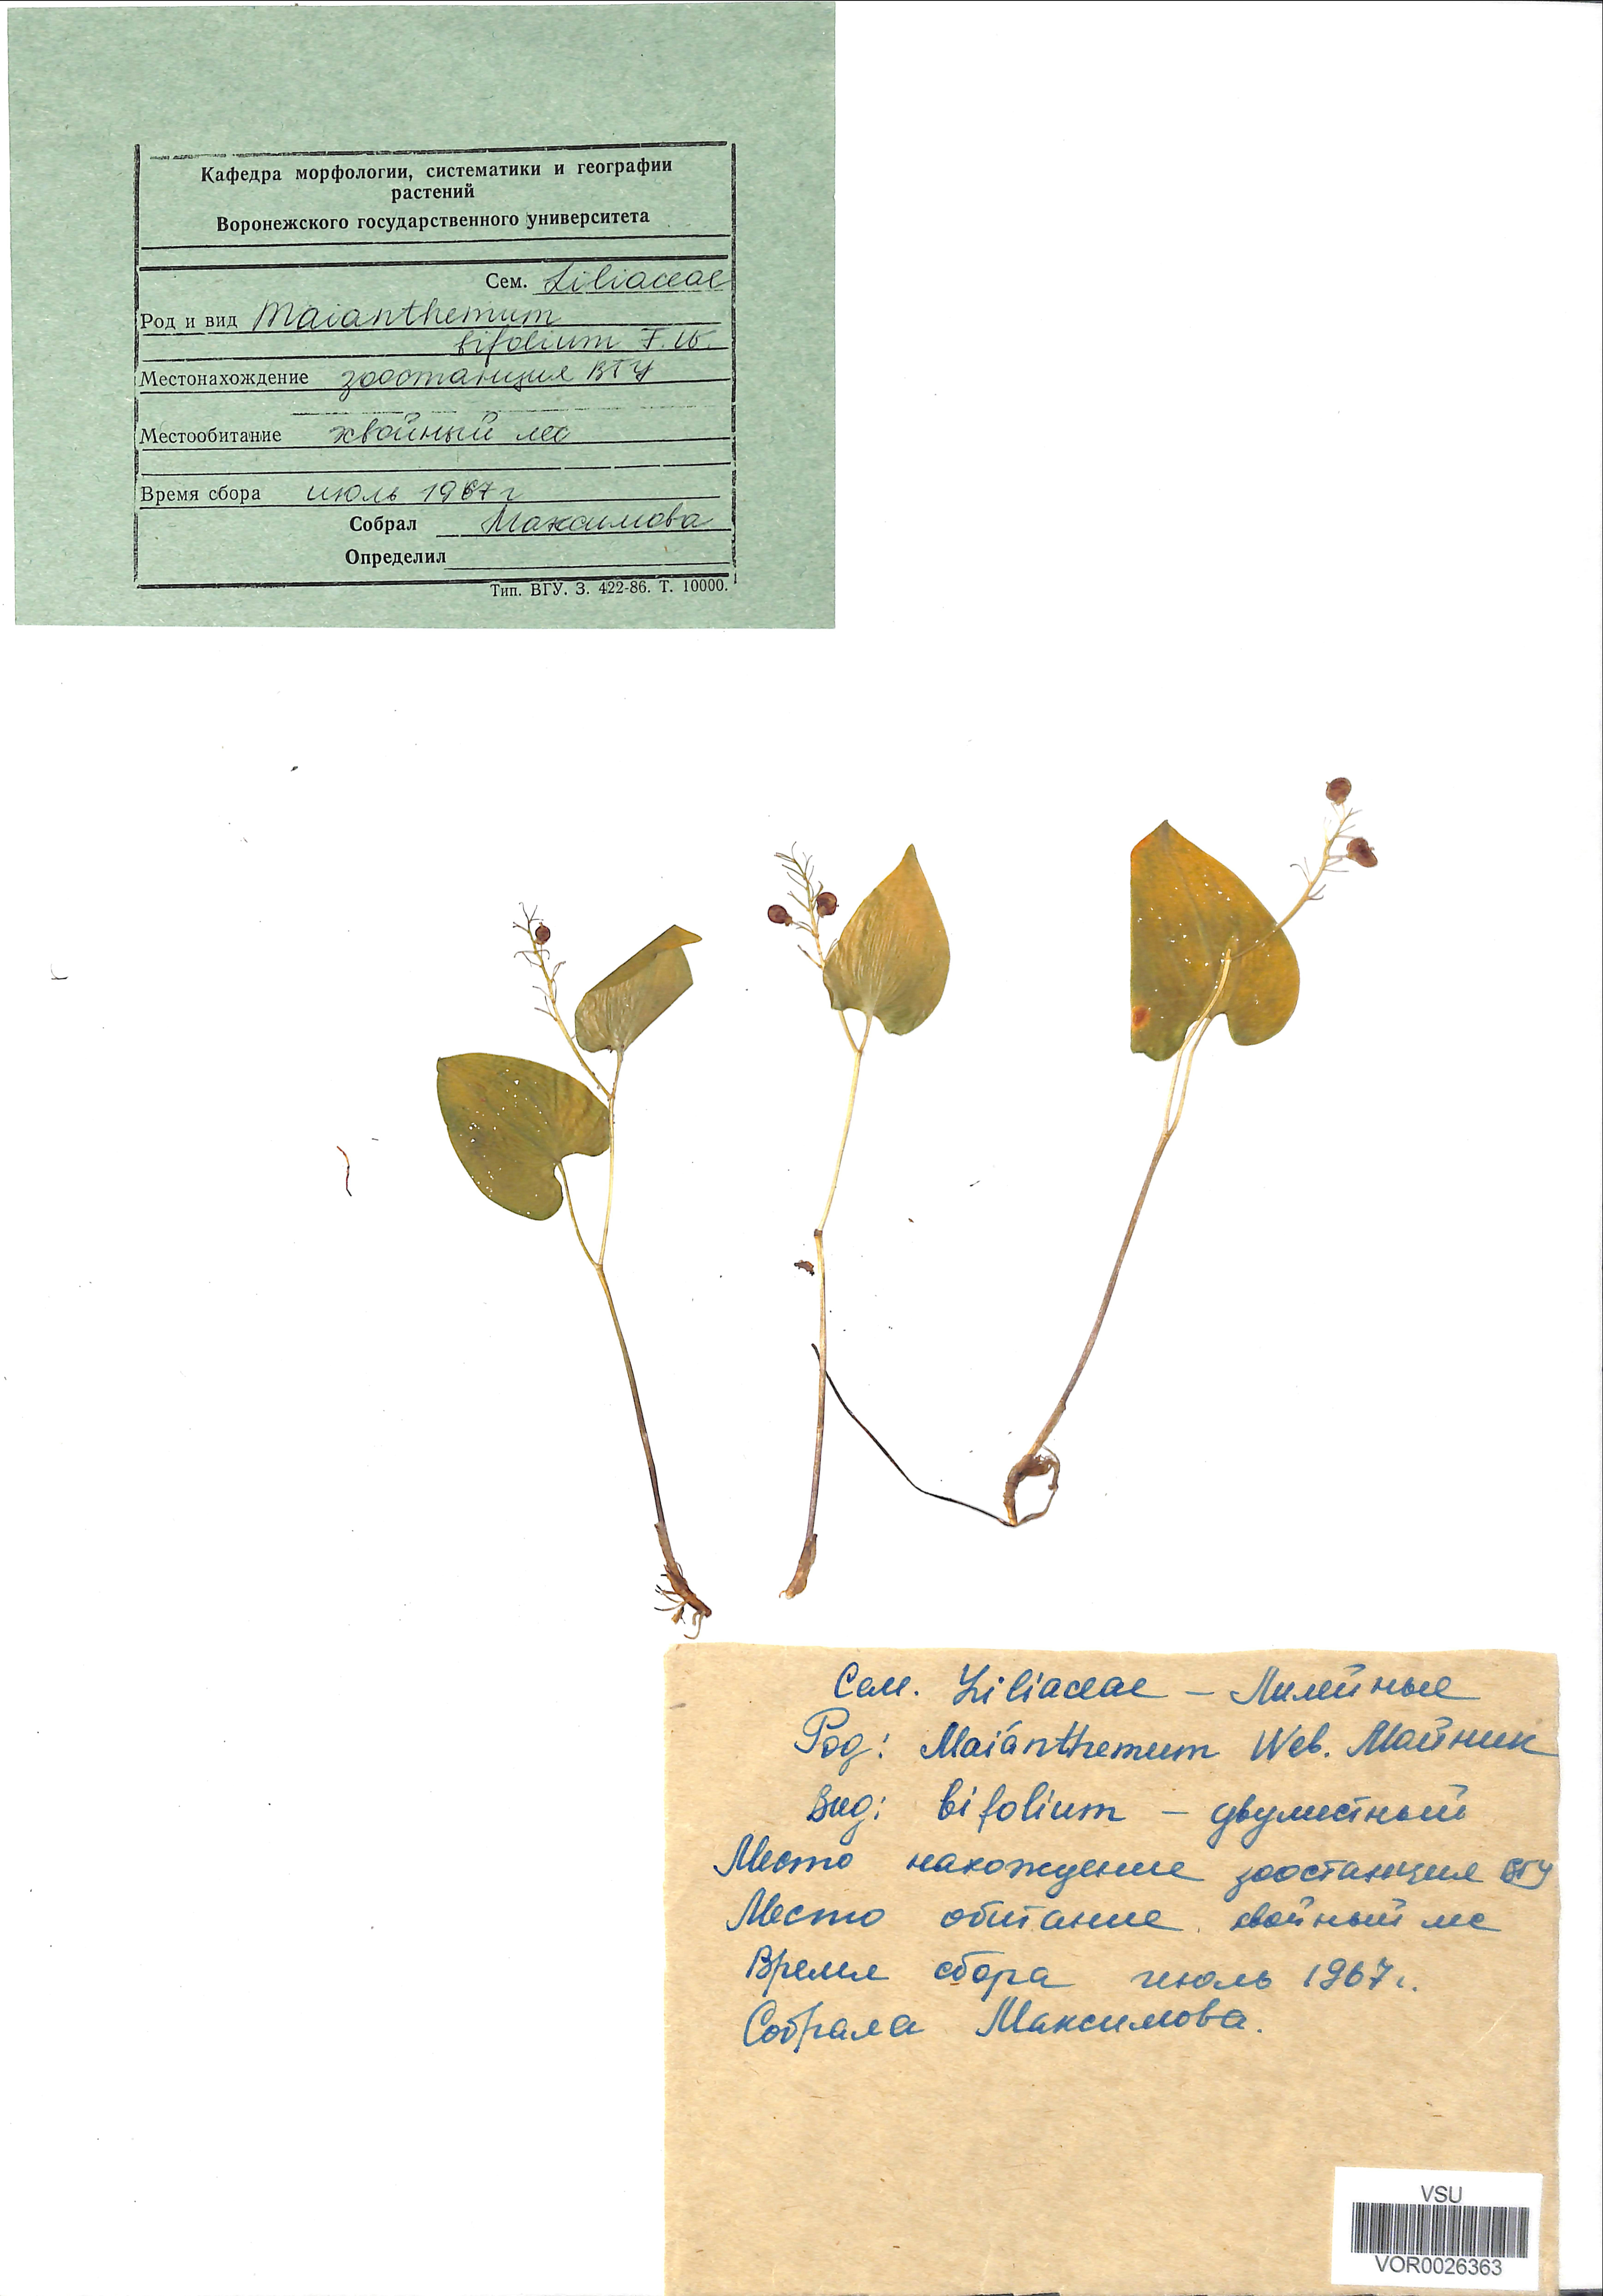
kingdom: Plantae
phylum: Tracheophyta
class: Liliopsida
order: Asparagales
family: Asparagaceae
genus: Maianthemum
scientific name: Maianthemum bifolium
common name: May lily
